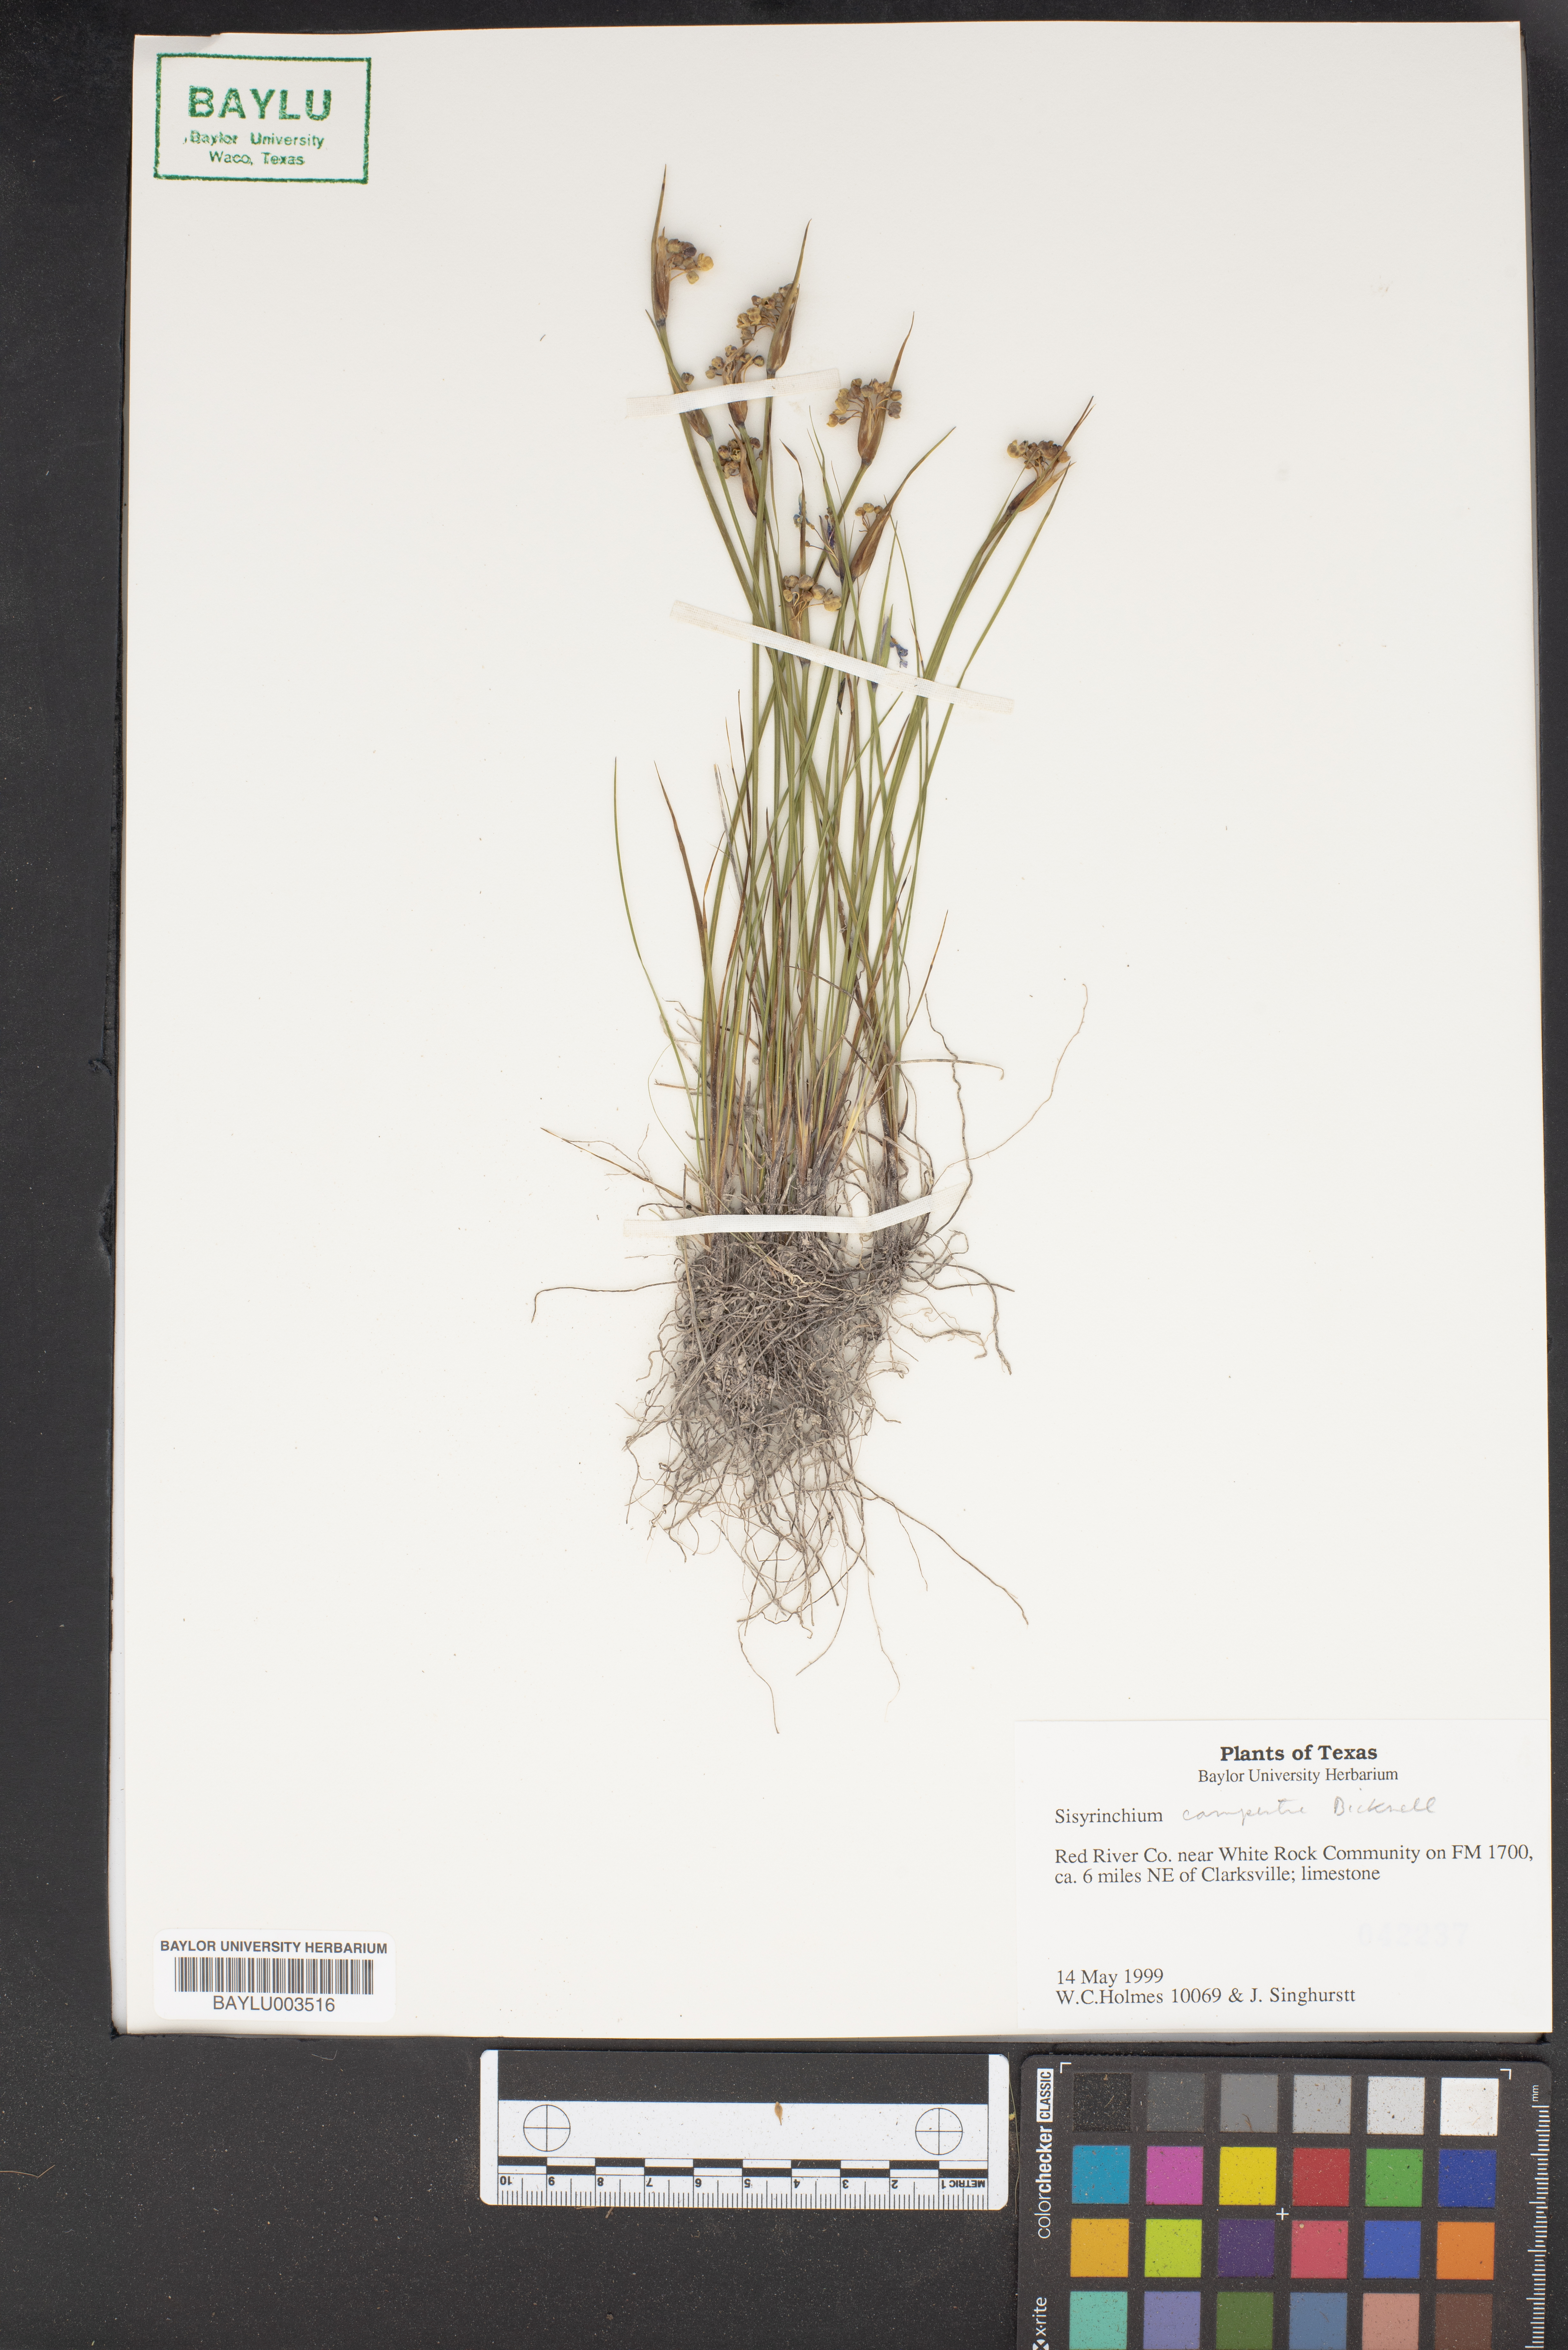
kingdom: Plantae
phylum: Tracheophyta
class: Liliopsida
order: Asparagales
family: Iridaceae
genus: Sisyrinchium
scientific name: Sisyrinchium campestre
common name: Prairie blue-eyed-grass
